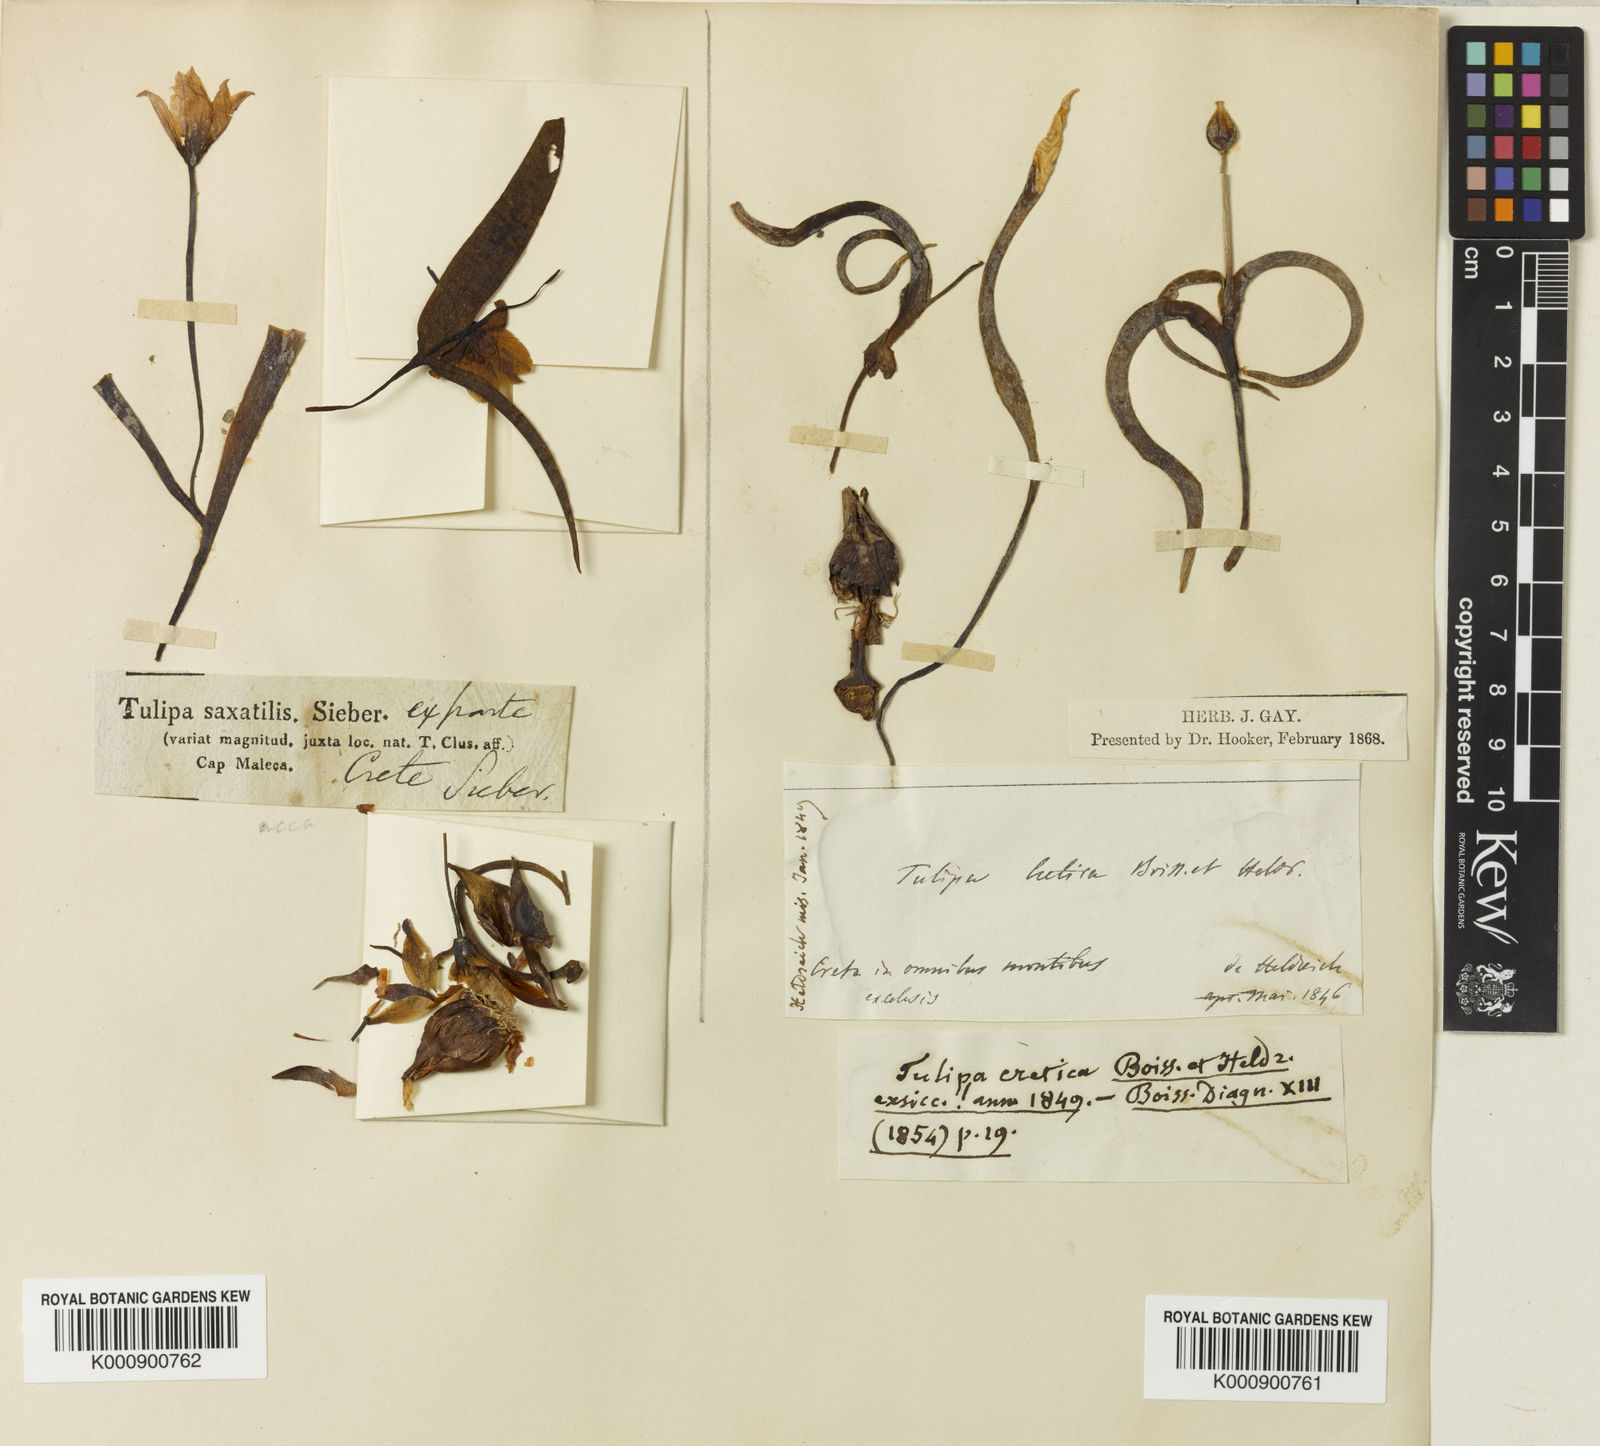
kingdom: Plantae
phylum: Tracheophyta
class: Liliopsida
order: Liliales
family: Liliaceae
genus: Tulipa
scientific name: Tulipa cretica
